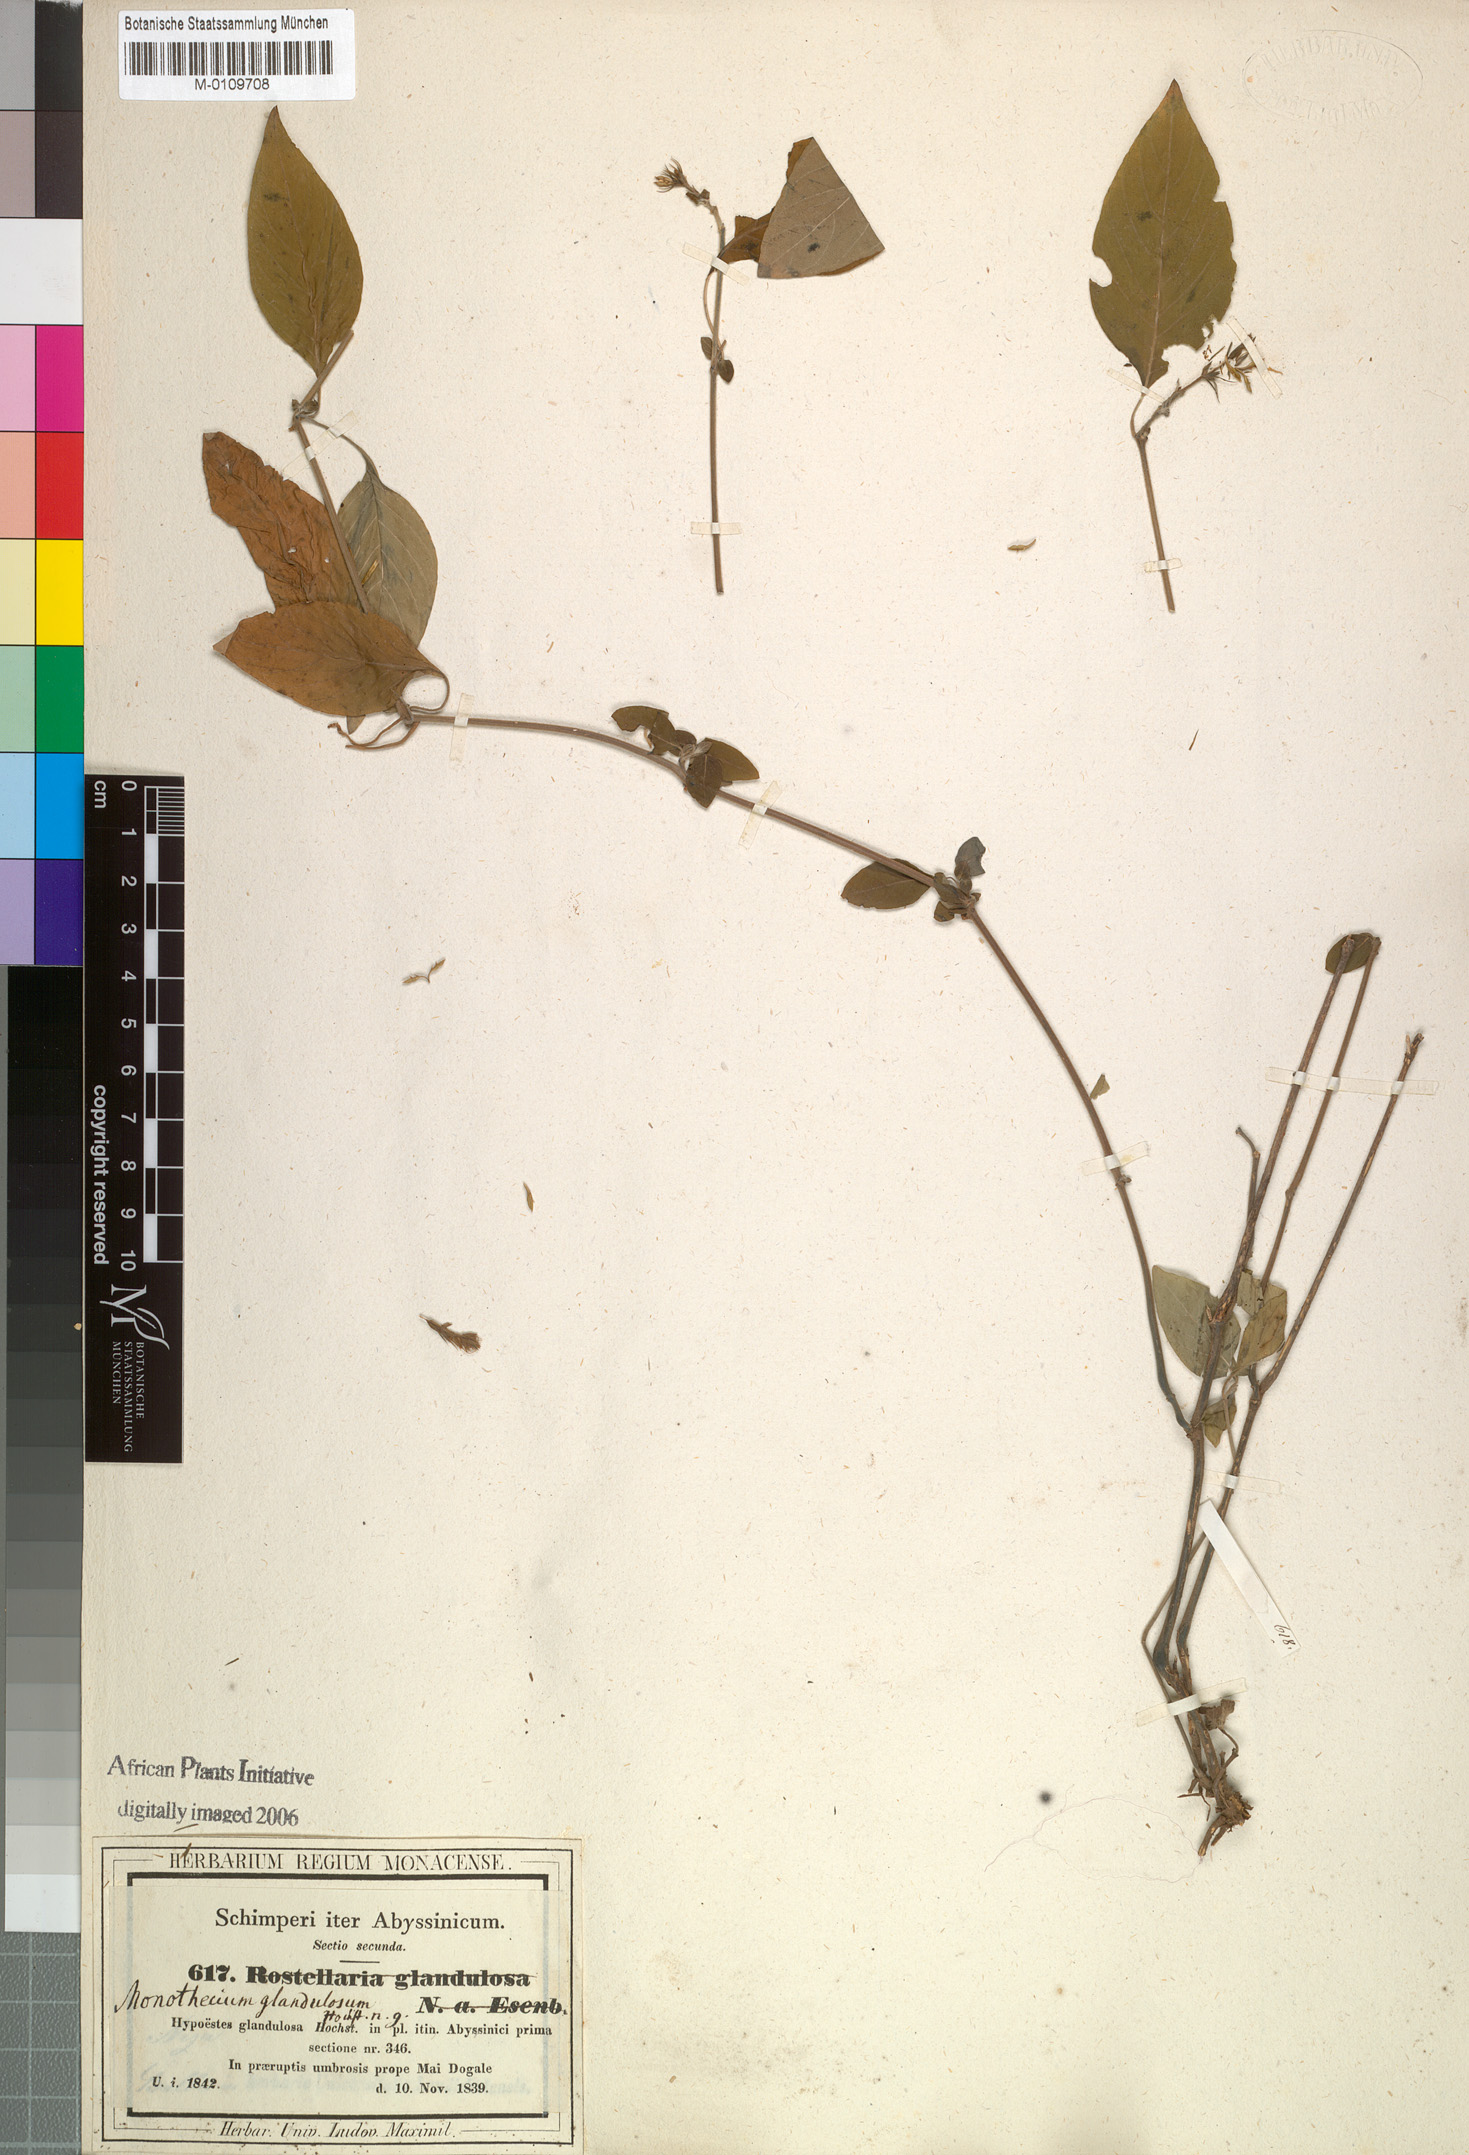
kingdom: Plantae
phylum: Tracheophyta
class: Magnoliopsida
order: Lamiales
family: Acanthaceae
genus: Monothecium
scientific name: Monothecium glandulosum
